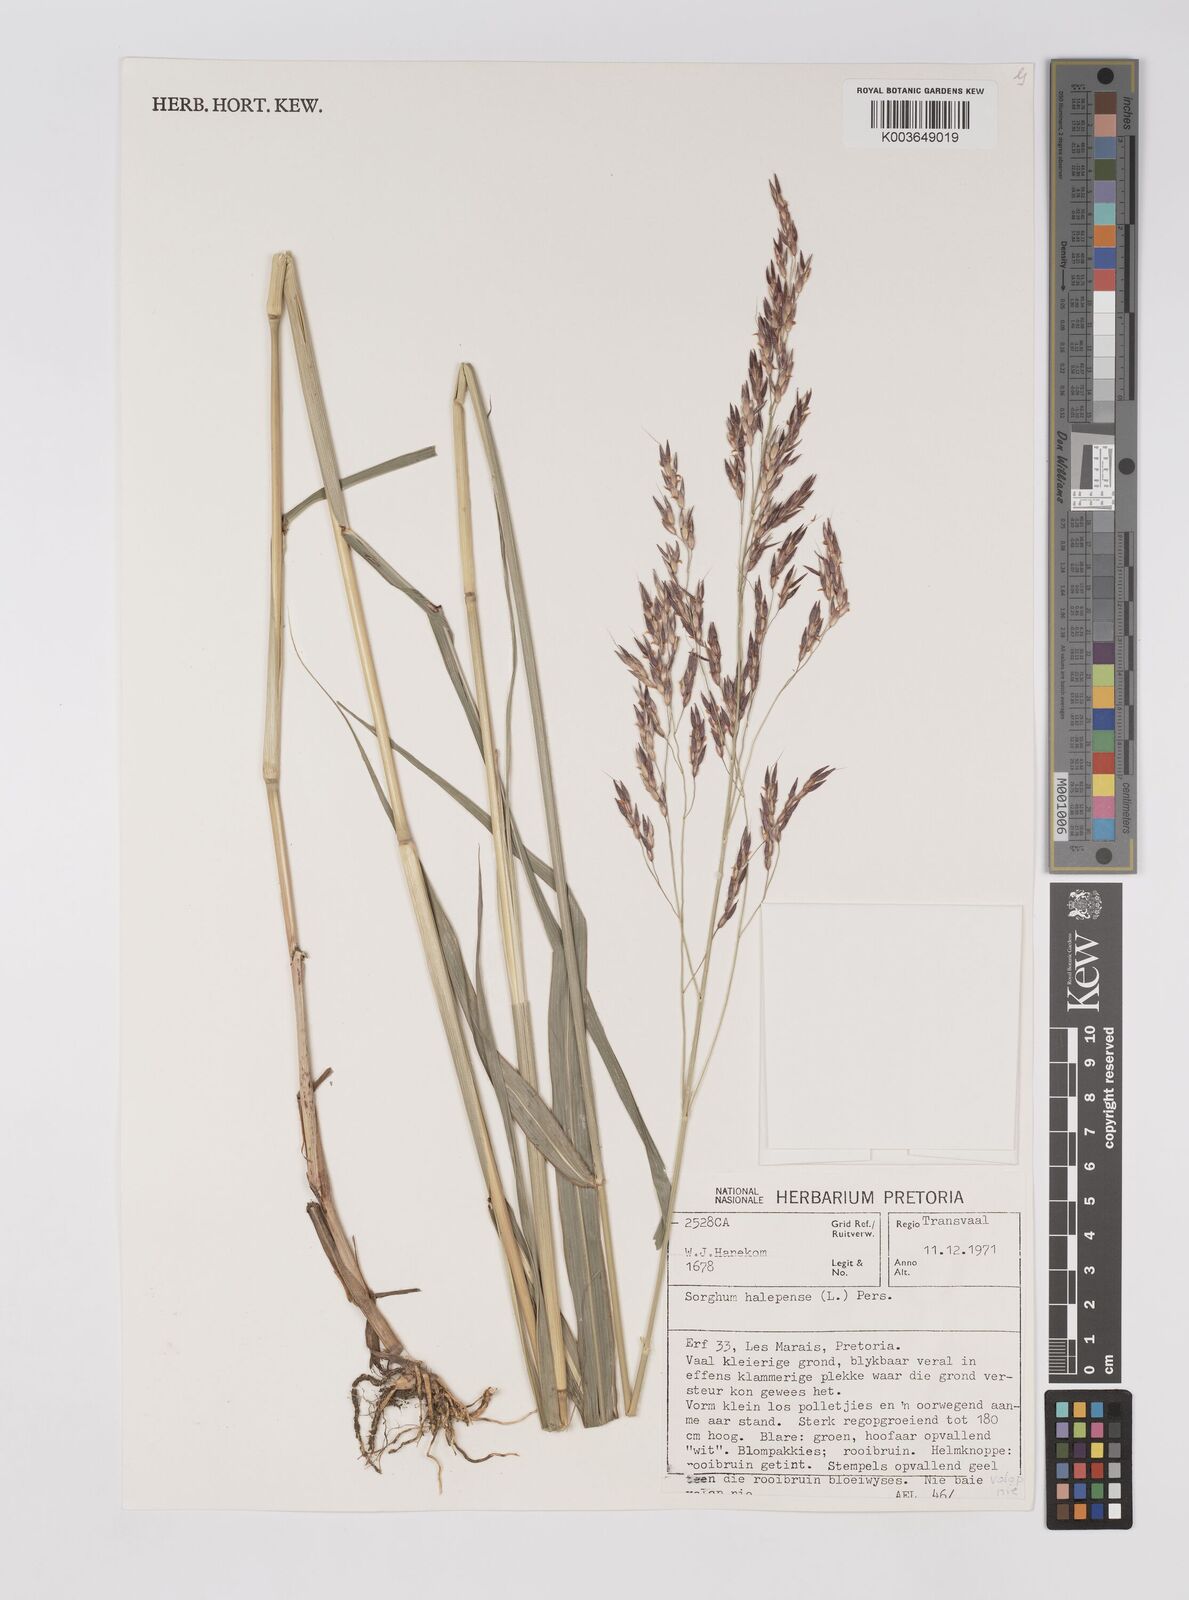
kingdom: Plantae
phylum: Tracheophyta
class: Liliopsida
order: Poales
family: Poaceae
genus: Sorghum
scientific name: Sorghum halepense
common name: Johnson-grass
